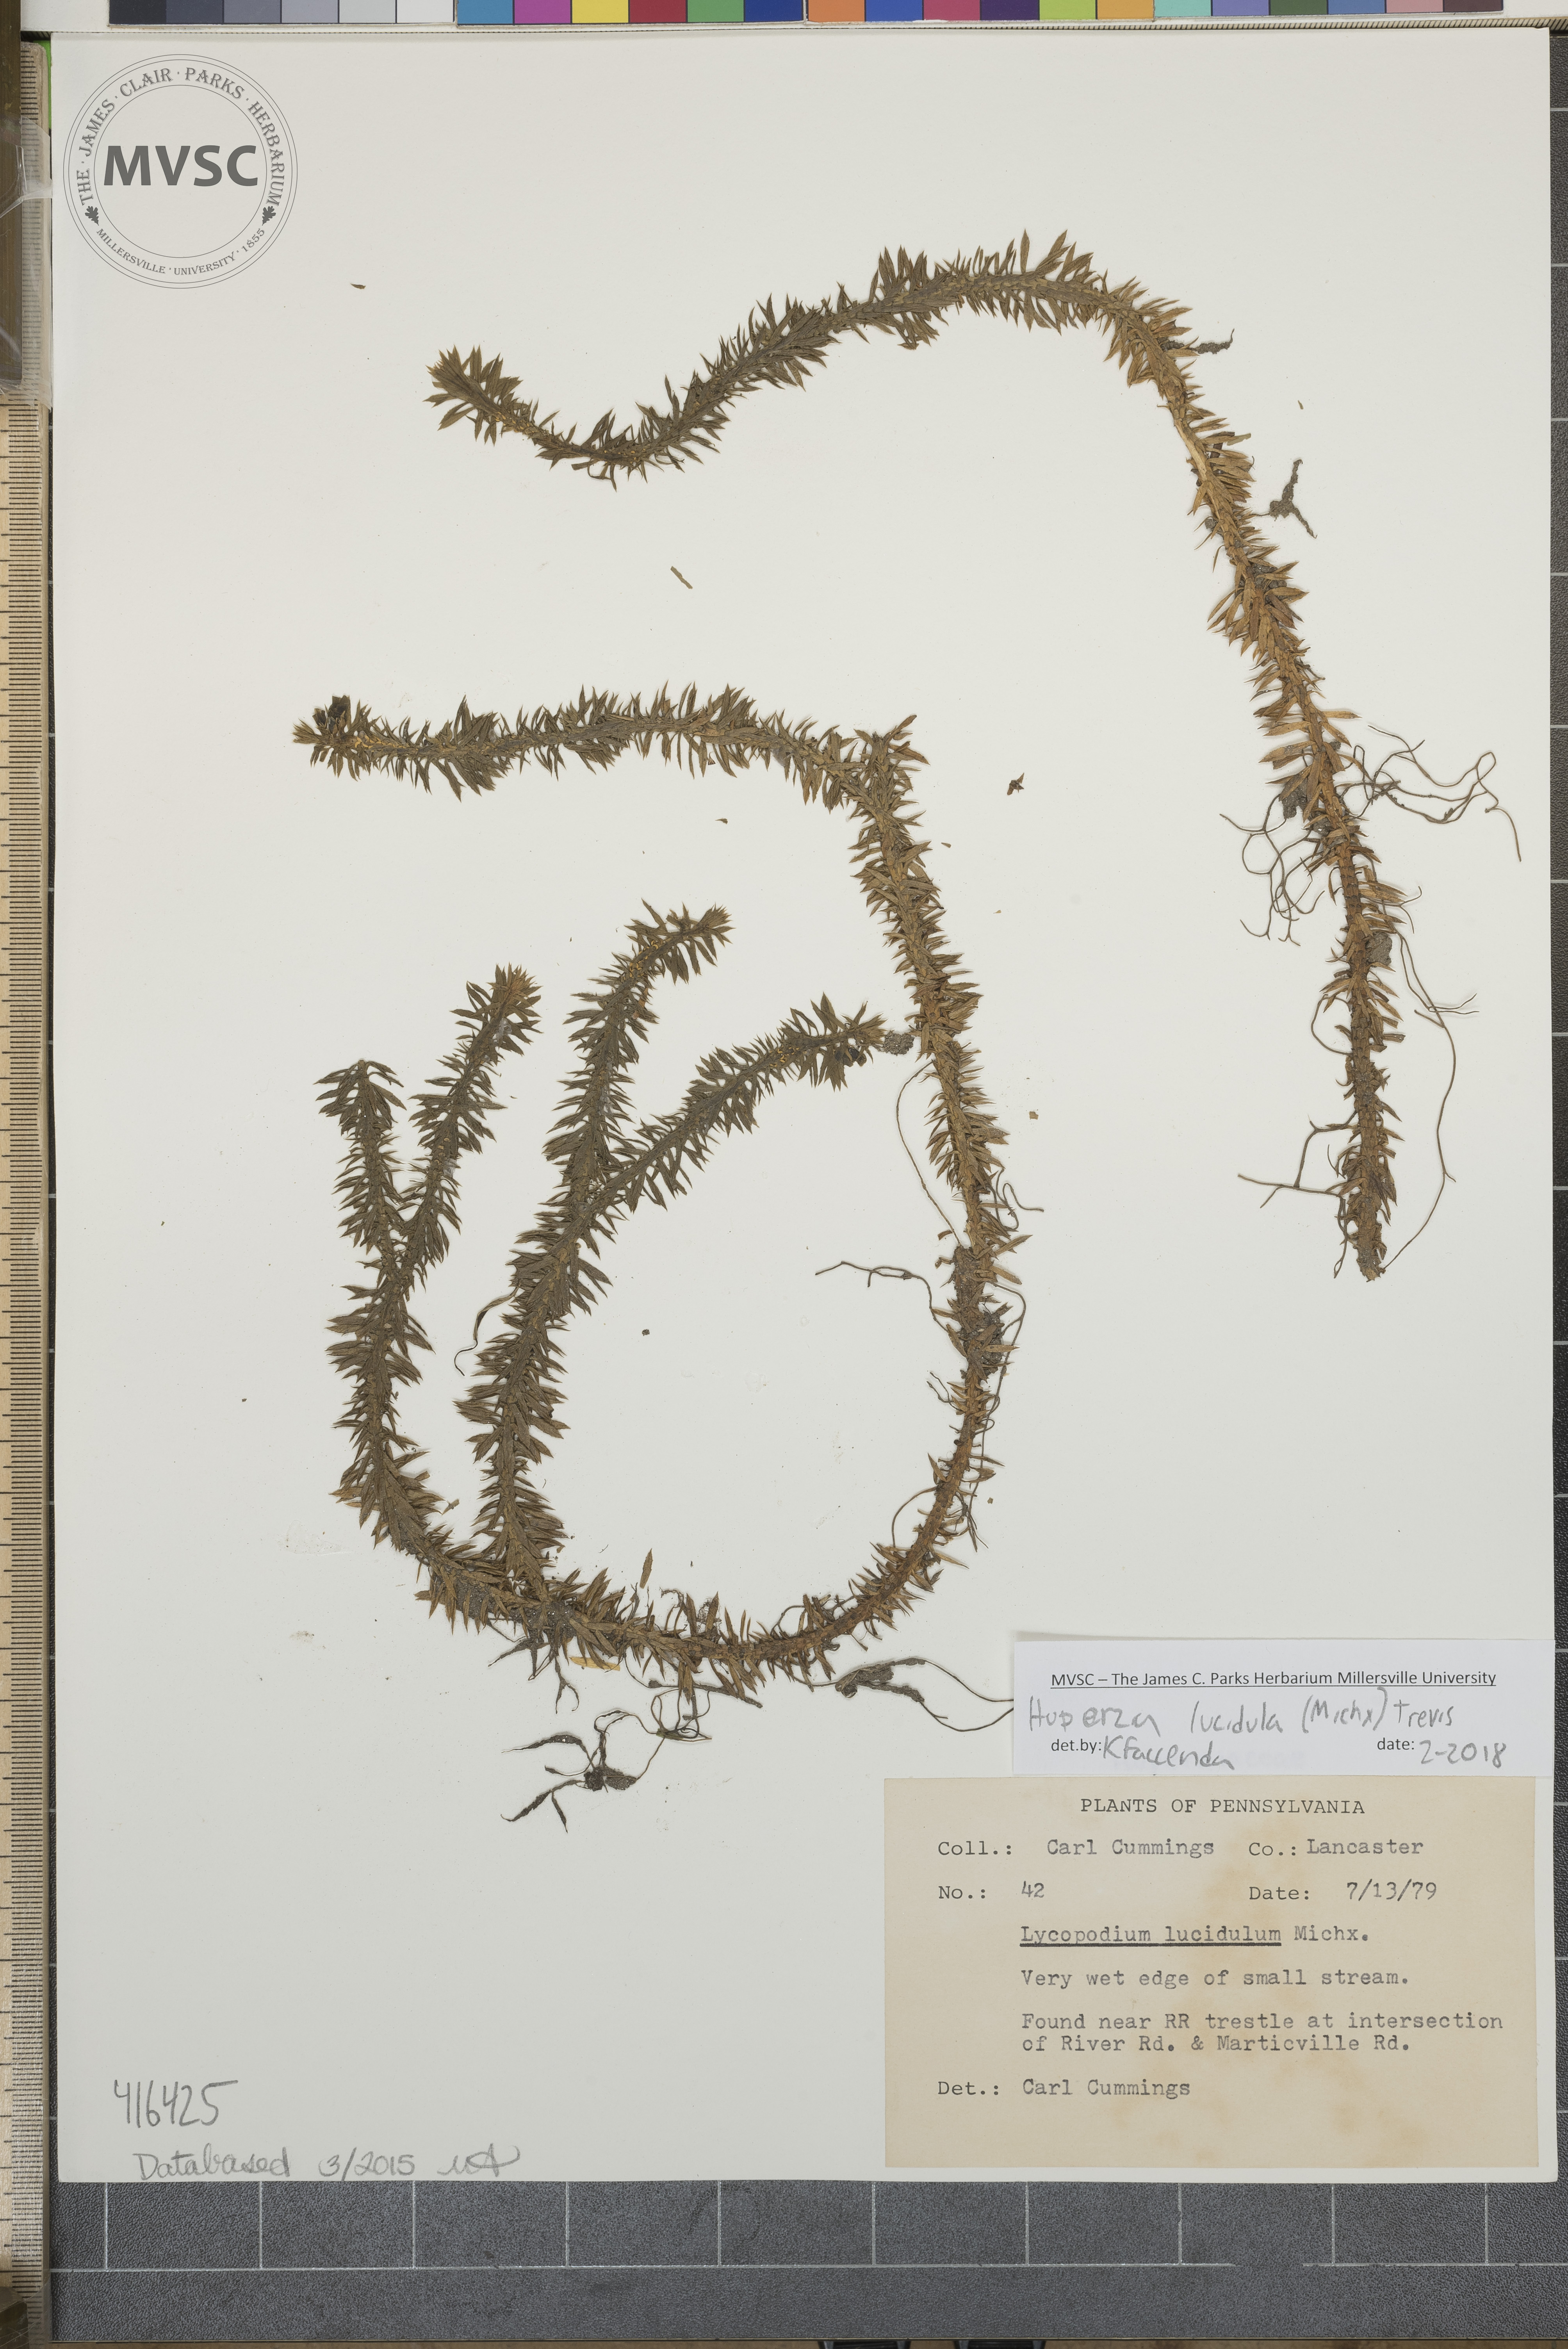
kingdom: Plantae
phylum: Tracheophyta
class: Lycopodiopsida
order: Lycopodiales
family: Lycopodiaceae
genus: Huperzia
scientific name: Huperzia lucidula
